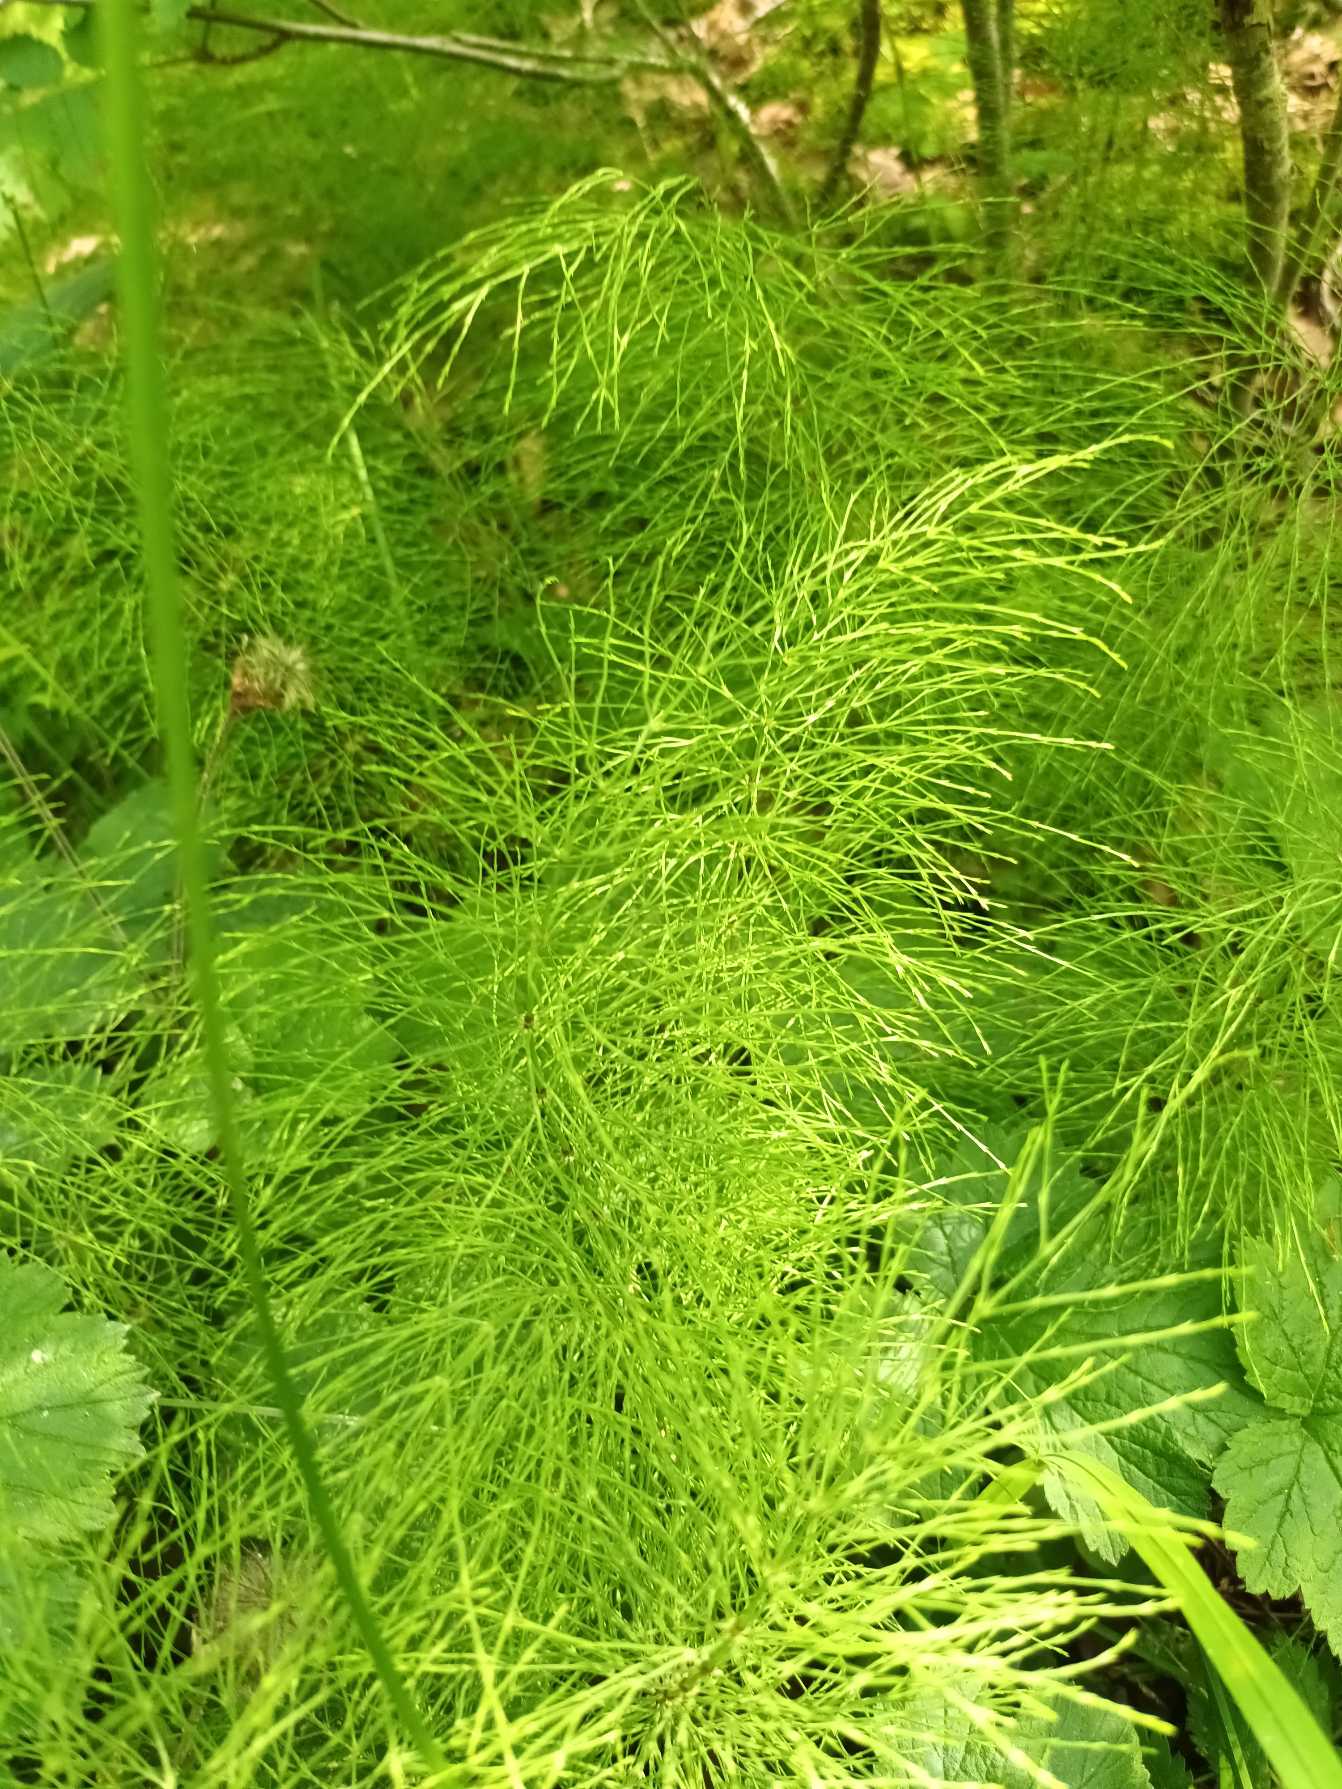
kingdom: Plantae
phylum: Tracheophyta
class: Polypodiopsida
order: Equisetales
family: Equisetaceae
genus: Equisetum
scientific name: Equisetum sylvaticum
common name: Skov-padderok
